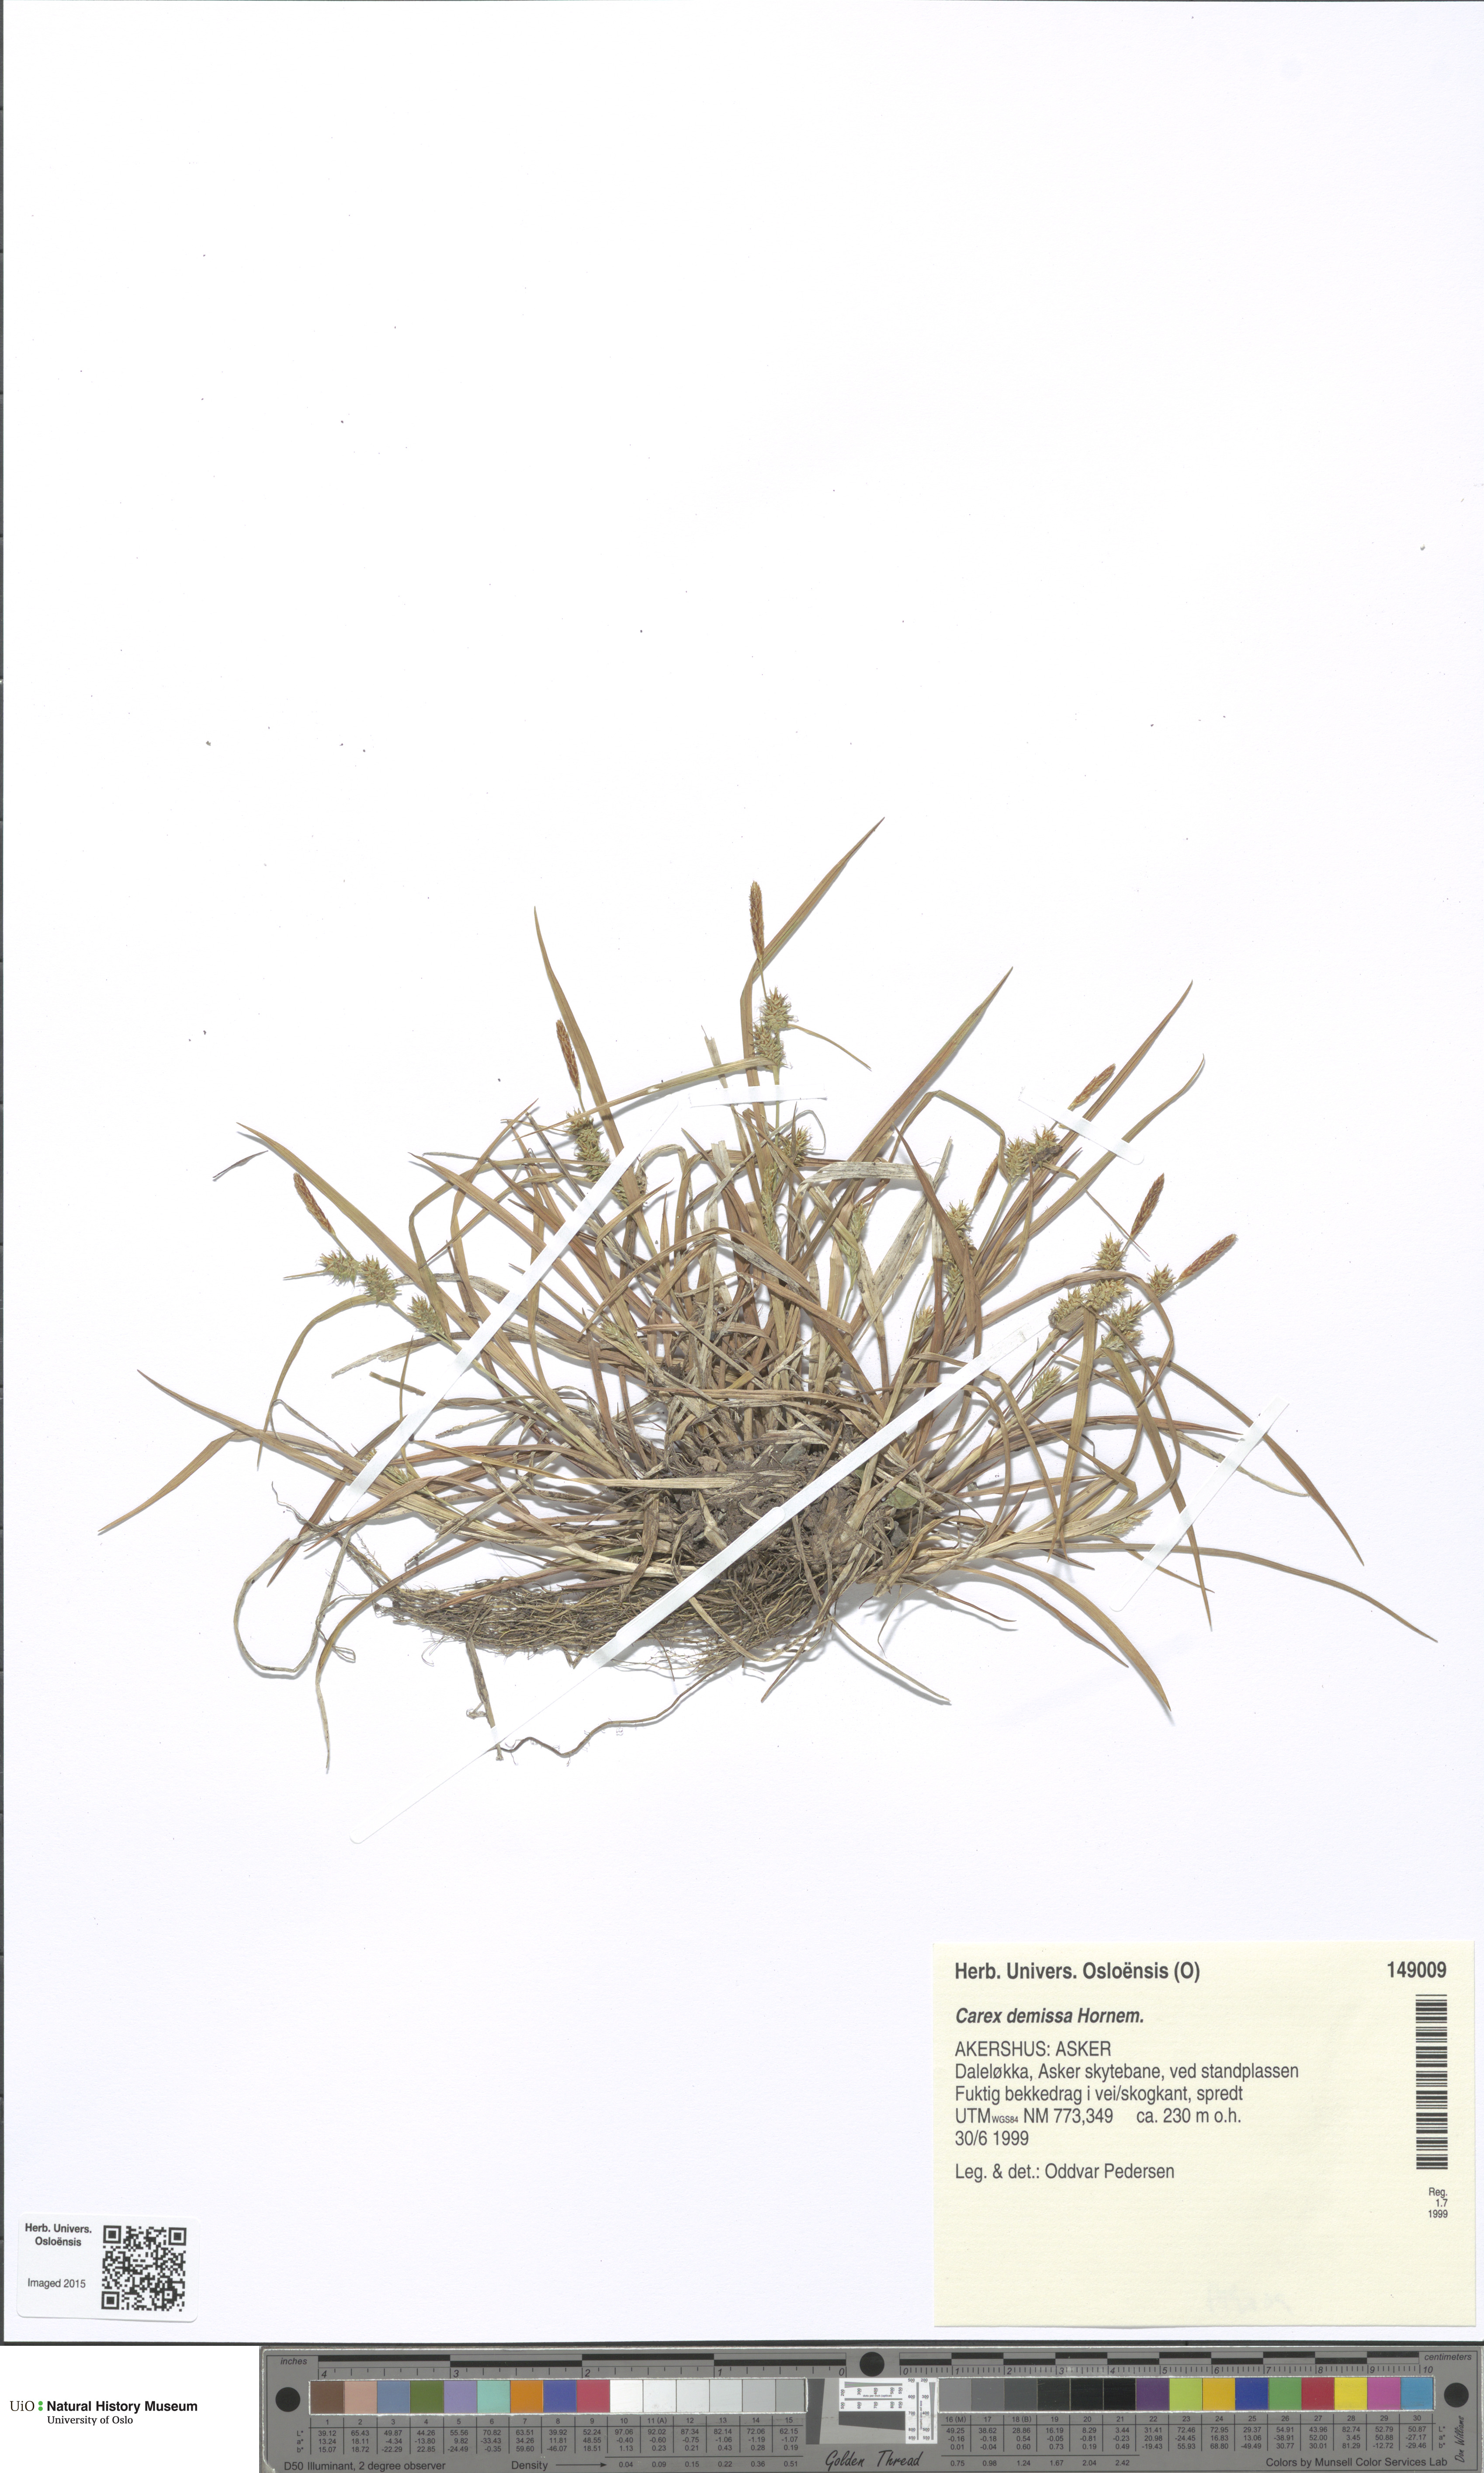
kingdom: Plantae
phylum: Tracheophyta
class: Liliopsida
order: Poales
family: Cyperaceae
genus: Carex
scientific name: Carex demissa
